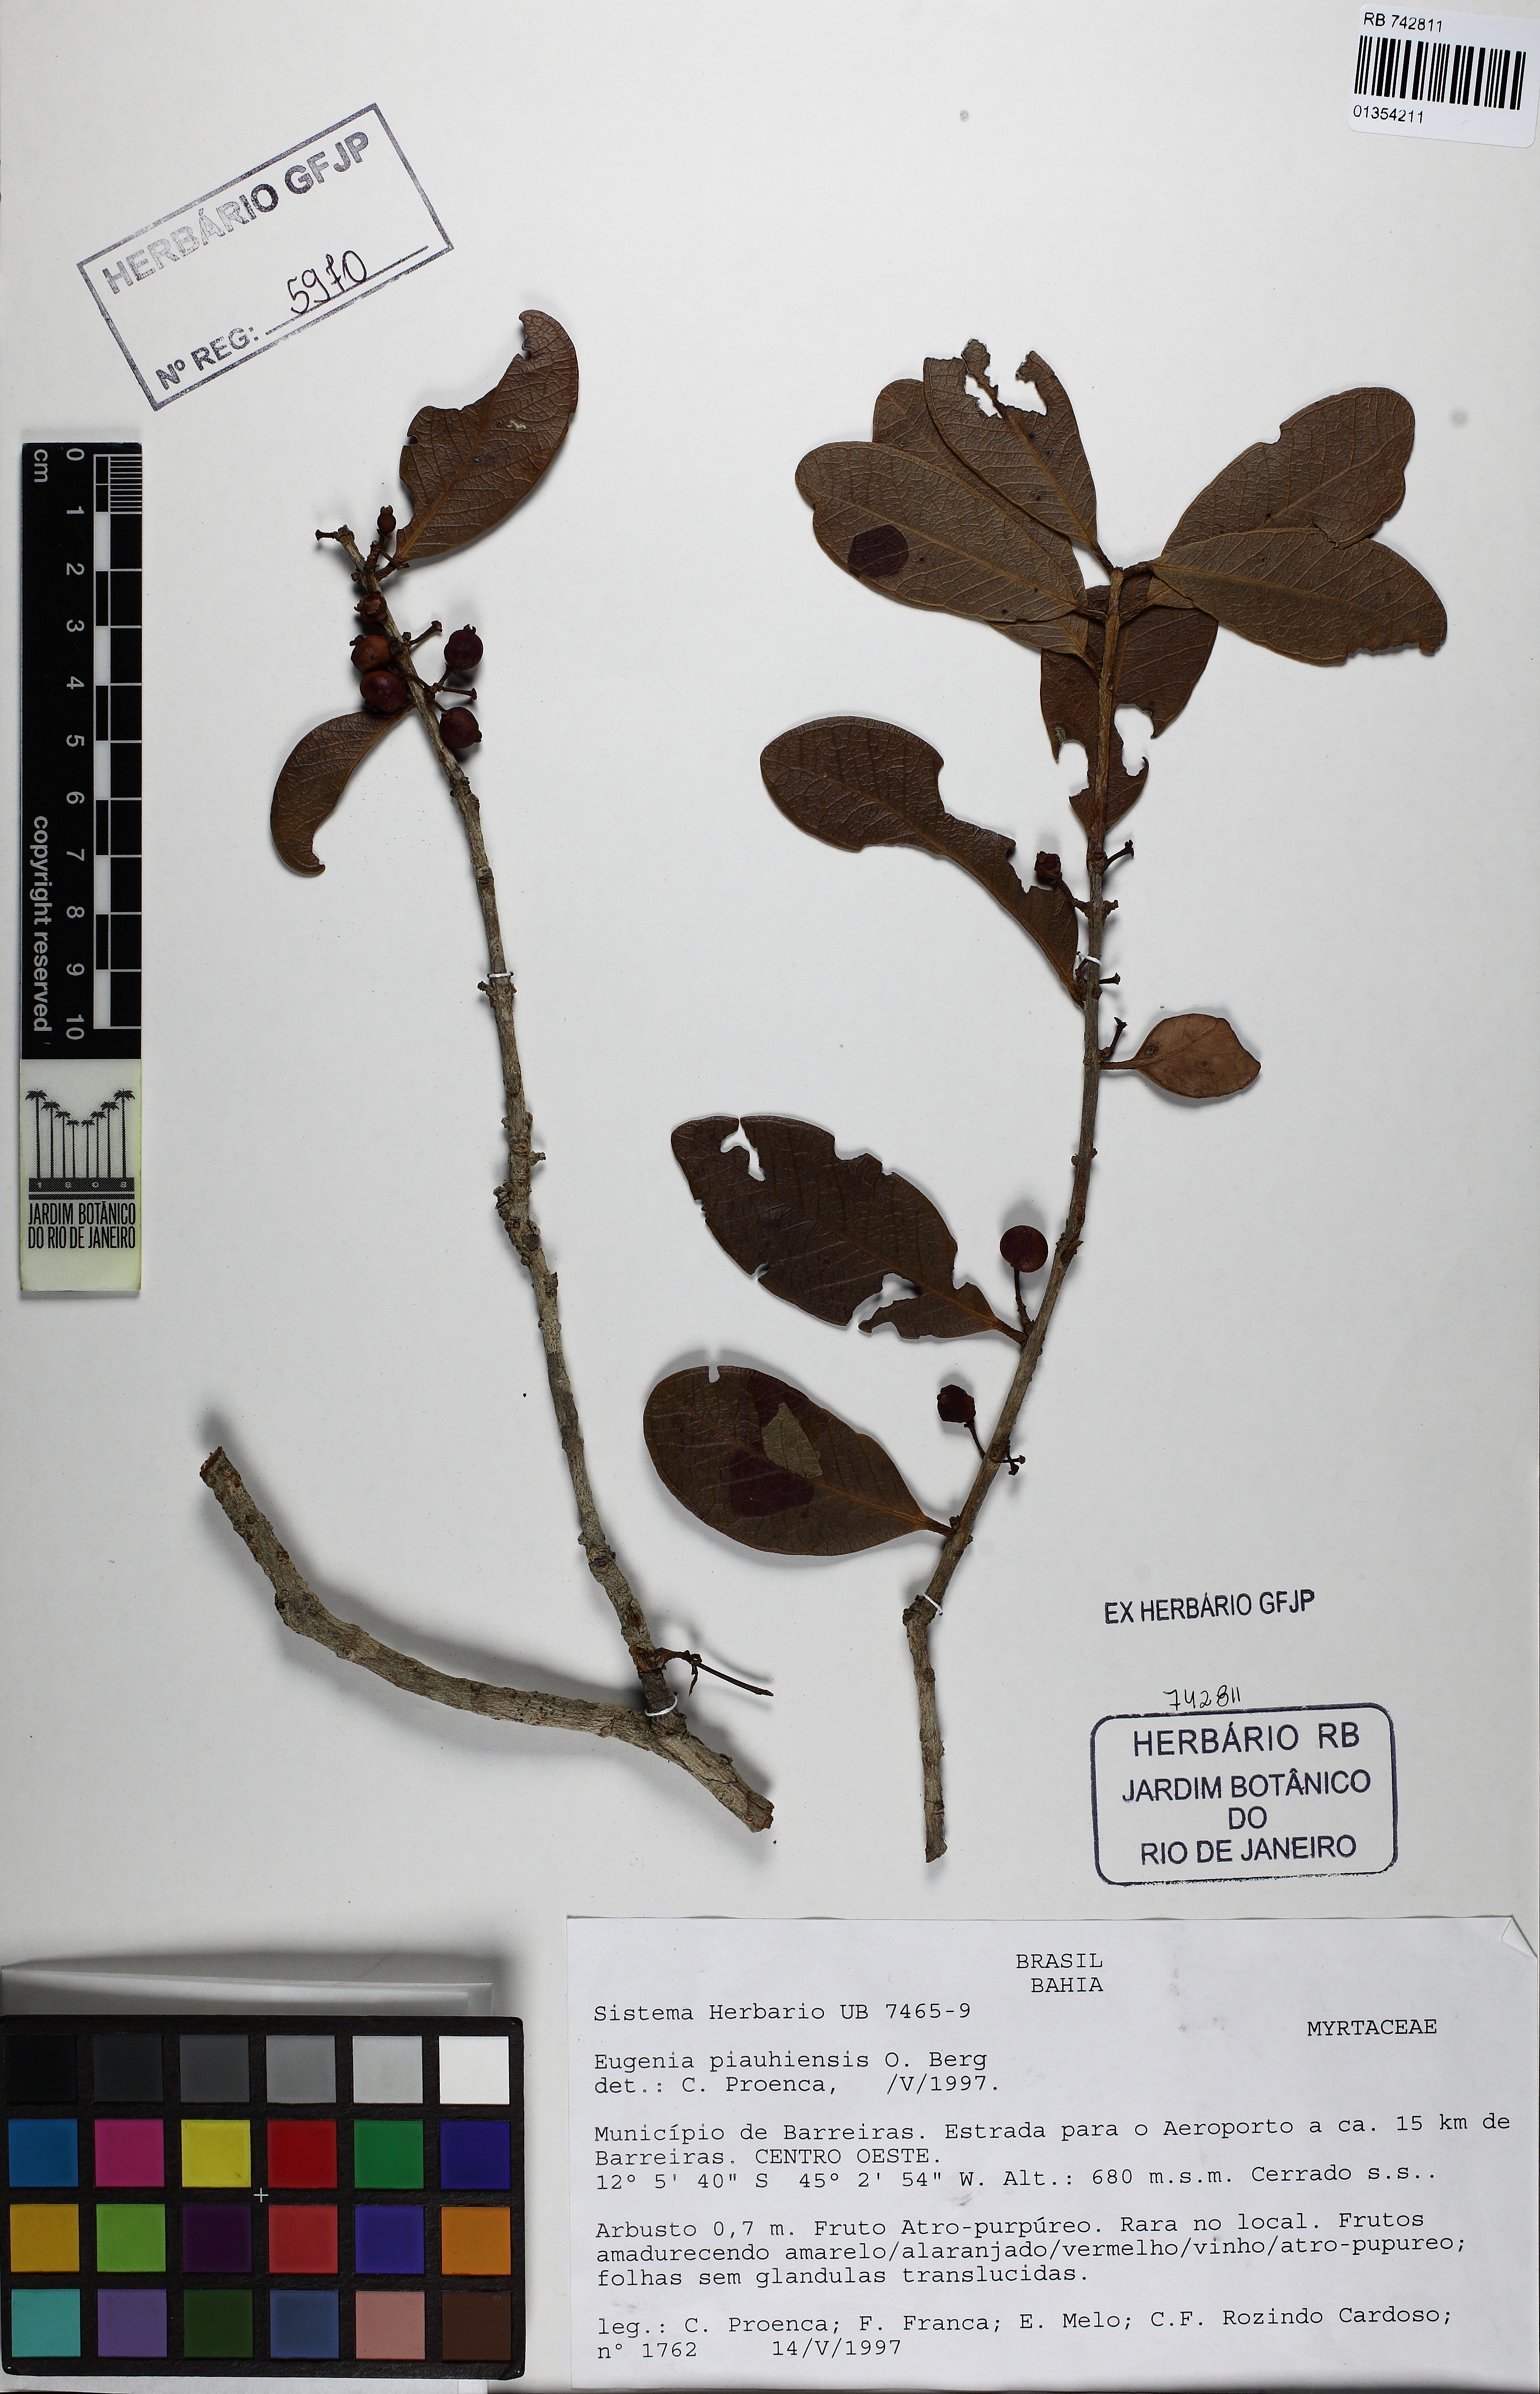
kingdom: Plantae
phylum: Tracheophyta
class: Magnoliopsida
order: Myrtales
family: Myrtaceae
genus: Eugenia
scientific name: Eugenia stictopetala
